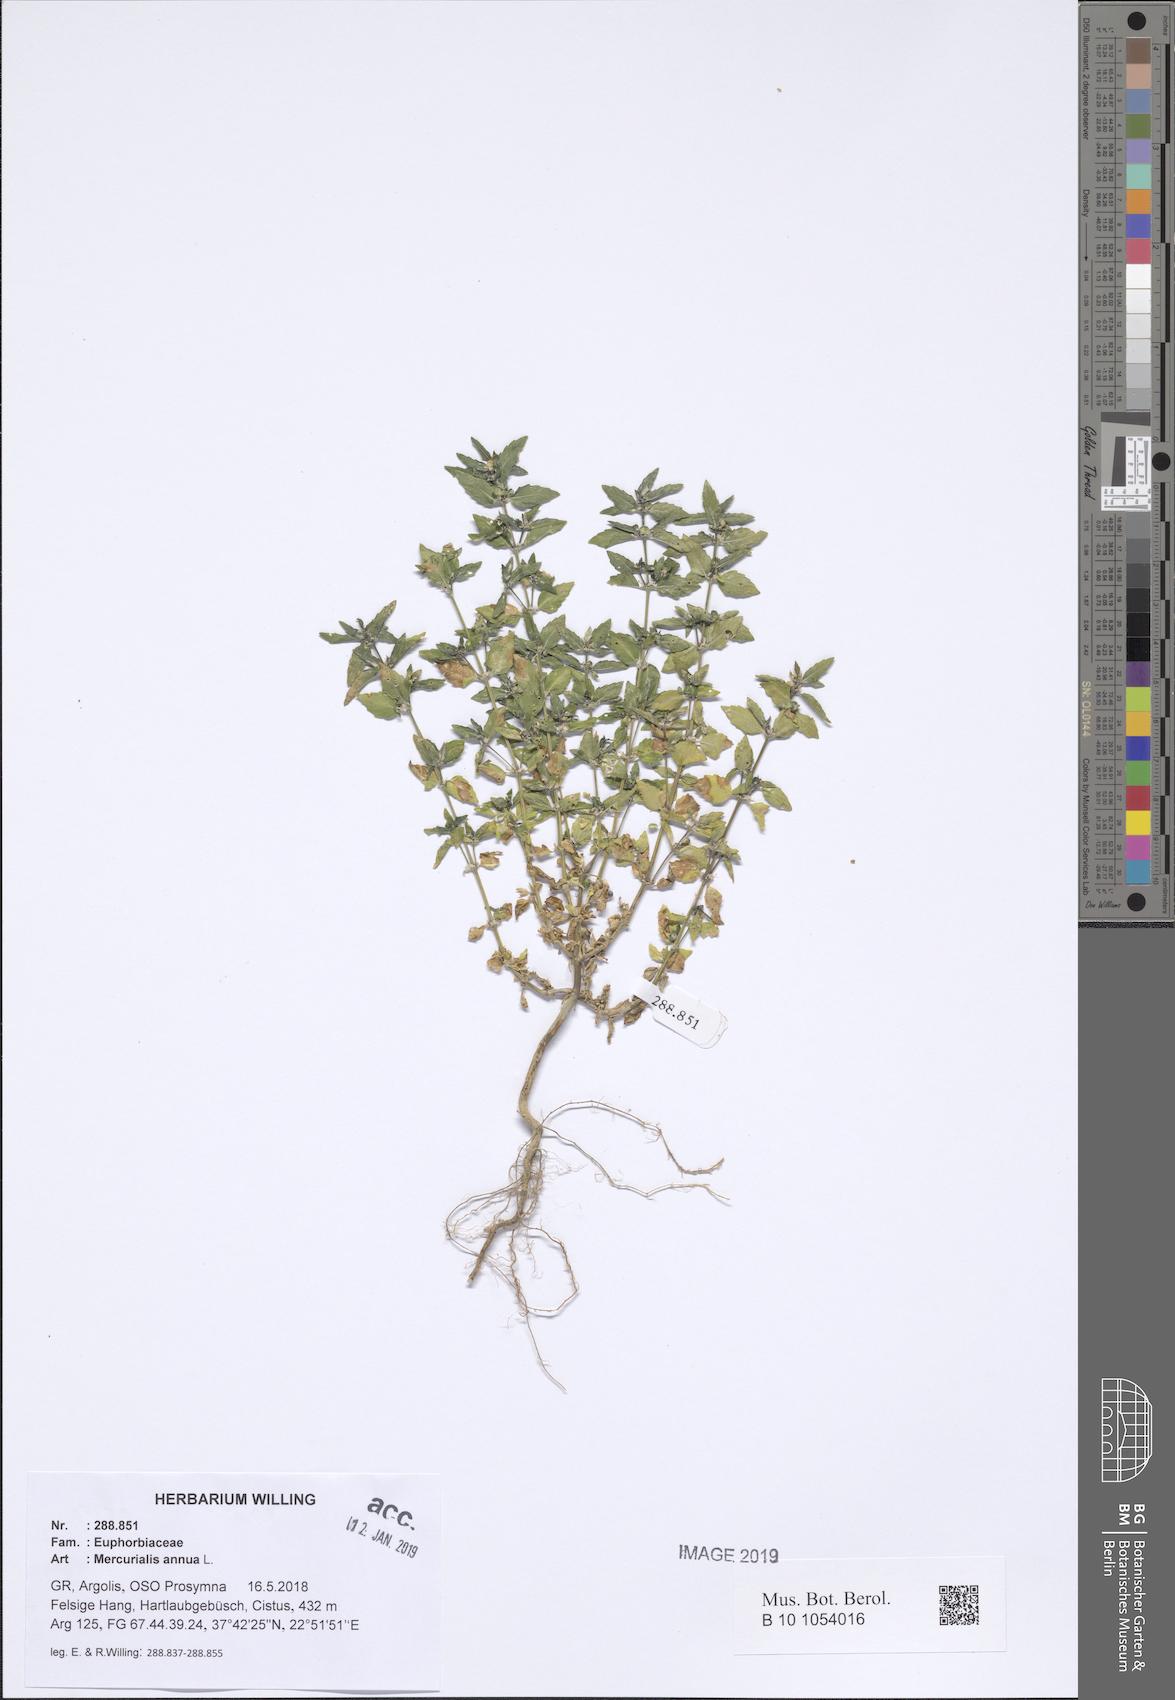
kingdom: Plantae
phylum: Tracheophyta
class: Magnoliopsida
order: Malpighiales
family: Euphorbiaceae
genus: Mercurialis
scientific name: Mercurialis annua
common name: Annual mercury
